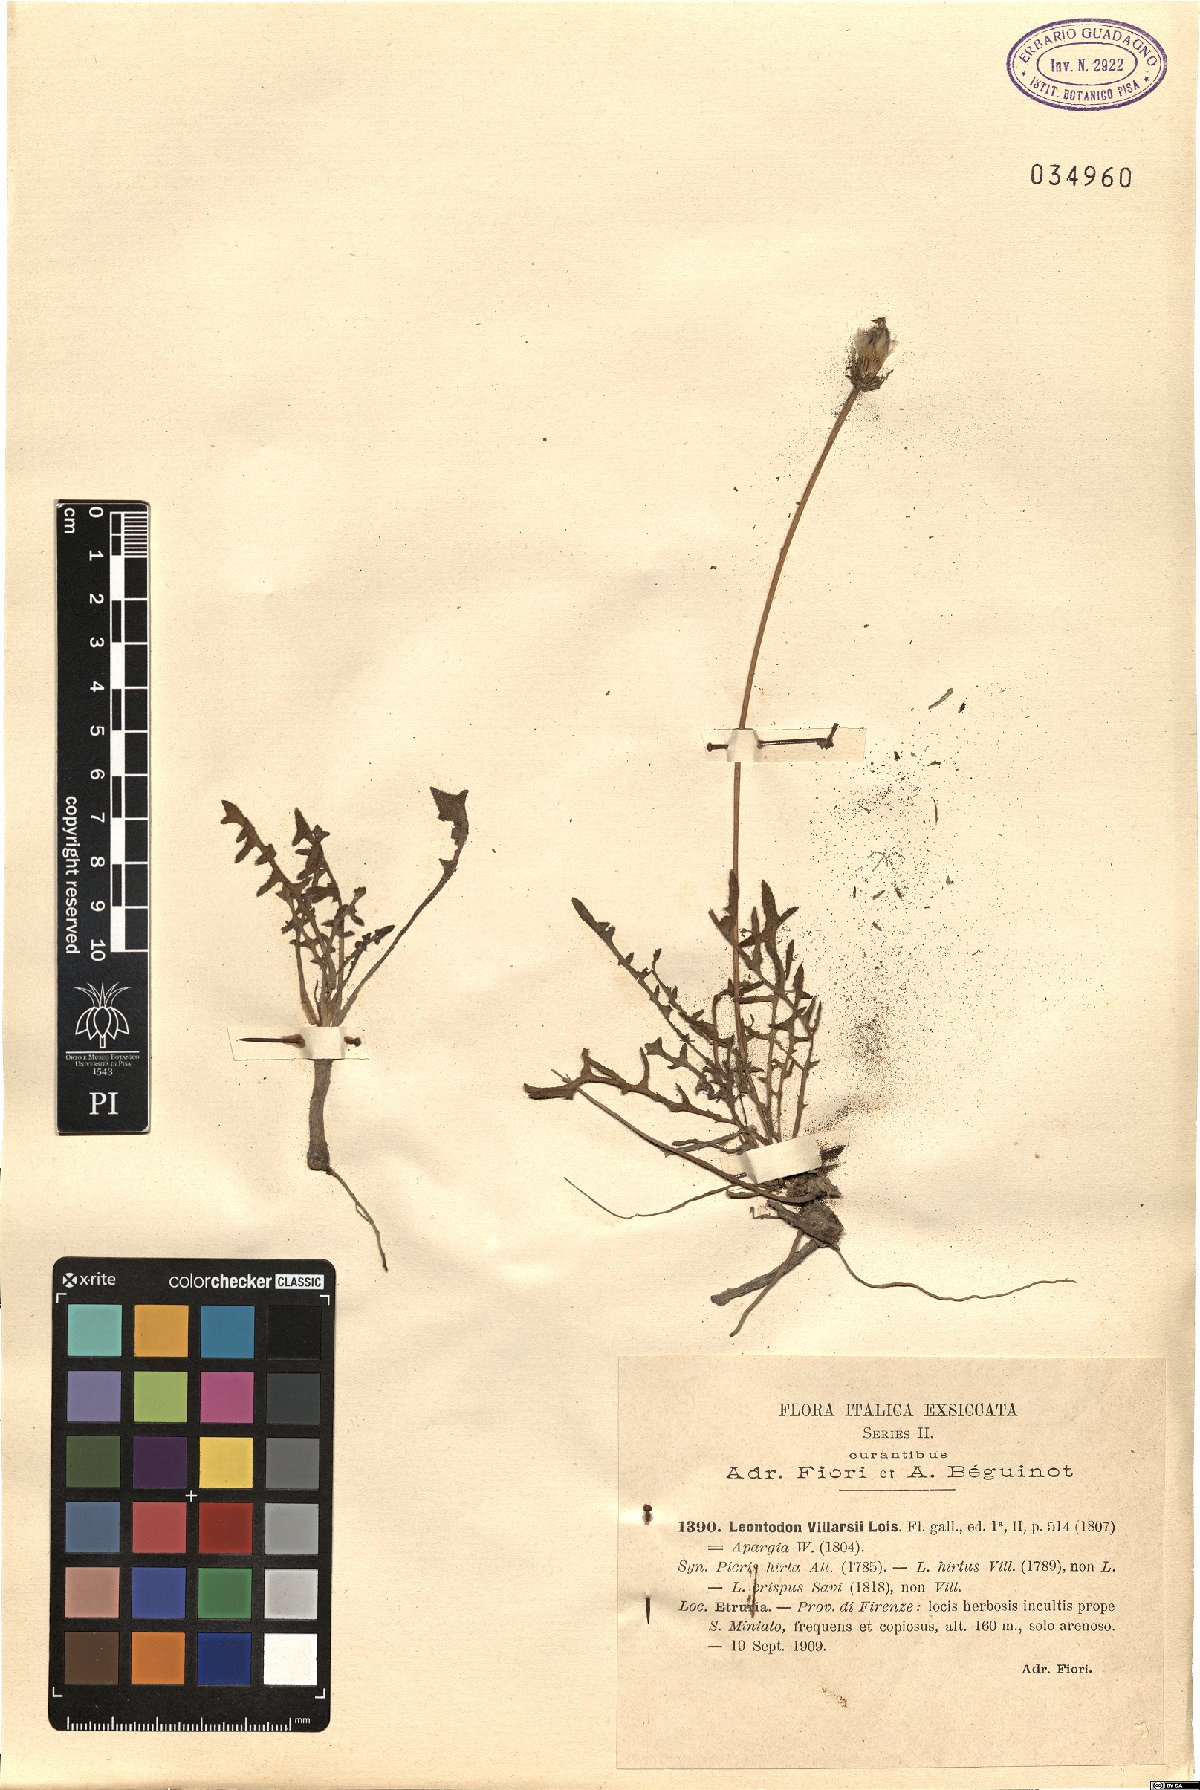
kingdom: Plantae
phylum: Tracheophyta
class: Magnoliopsida
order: Asterales
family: Asteraceae
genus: Leontodon
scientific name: Leontodon hirtus
